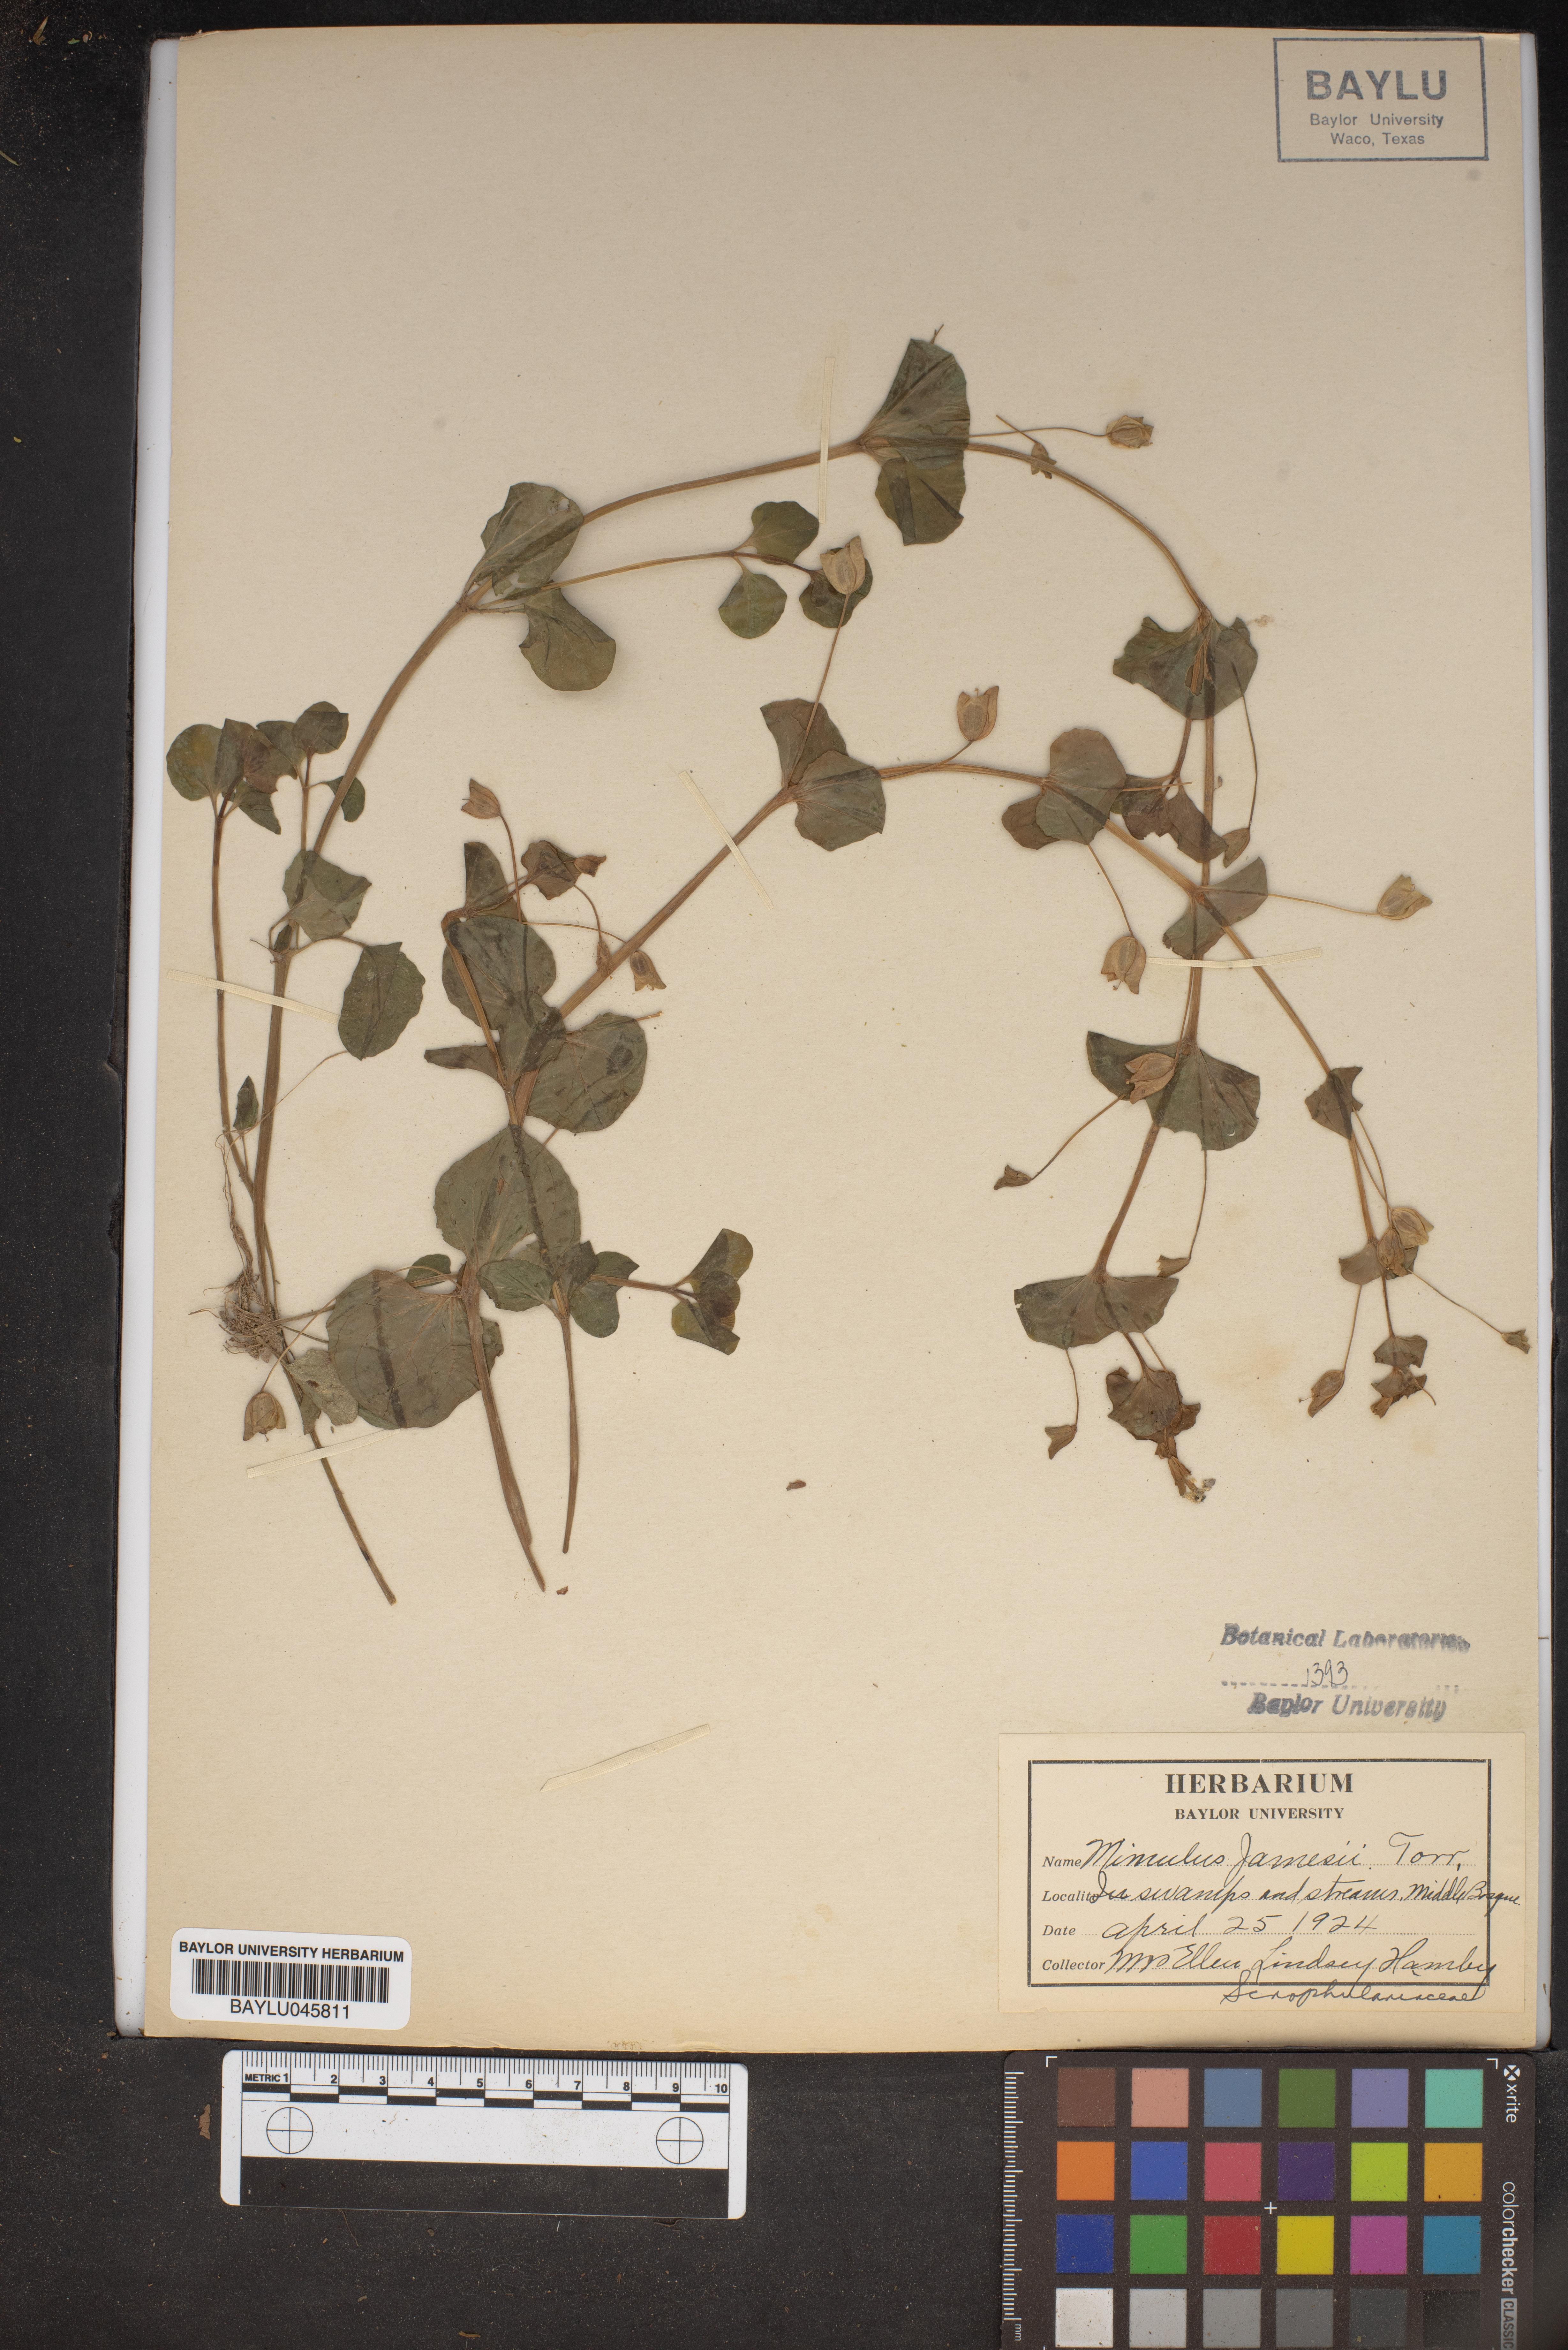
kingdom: Plantae
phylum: Tracheophyta
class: Magnoliopsida
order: Lamiales
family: Phrymaceae
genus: Erythranthe
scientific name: Erythranthe geyeri
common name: Geyer's monkeyflower
